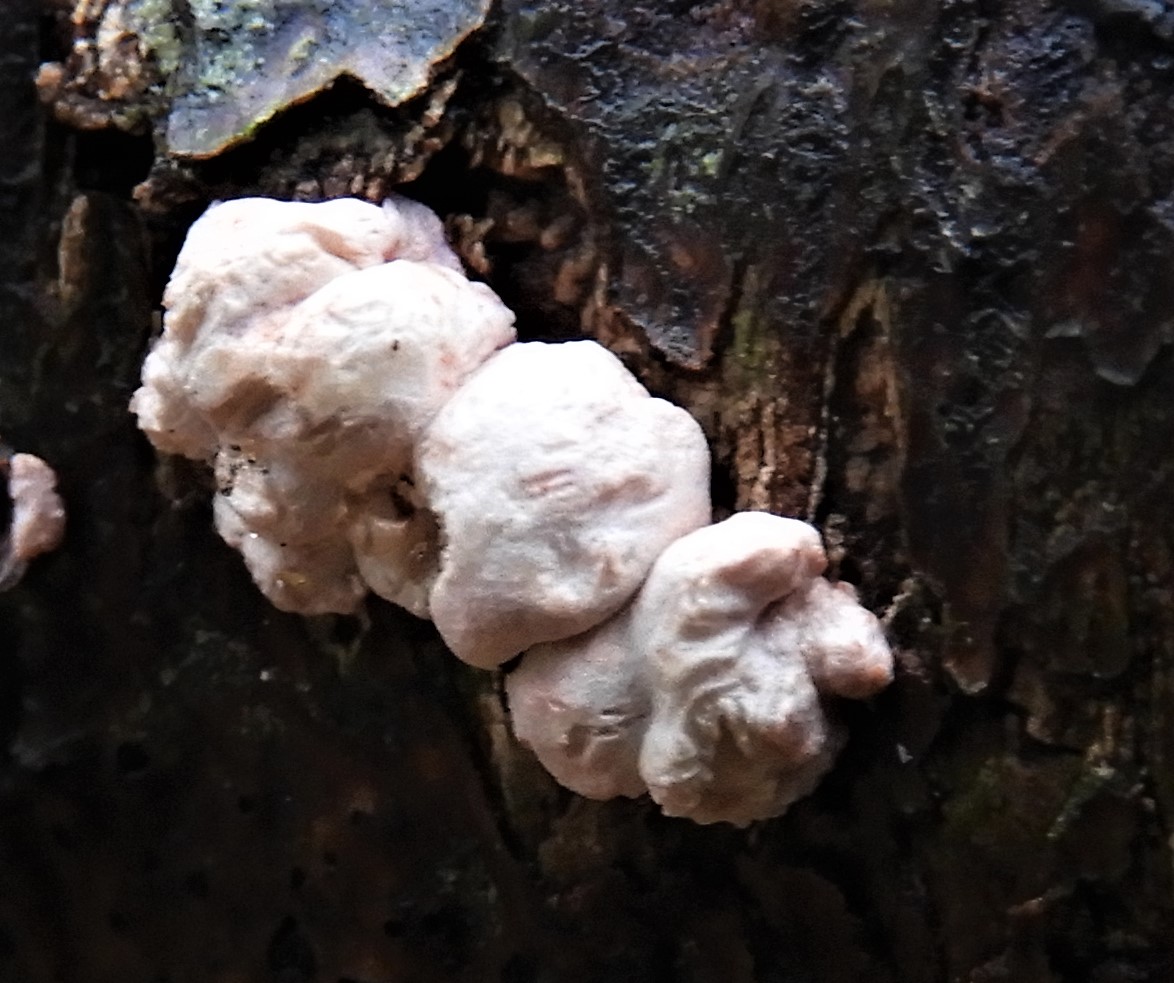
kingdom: Fungi
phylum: Ascomycota
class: Sordariomycetes
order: Hypocreales
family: Hypocreaceae
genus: Trichoderma
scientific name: Trichoderma europaeum
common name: rosabrun kødkerne
